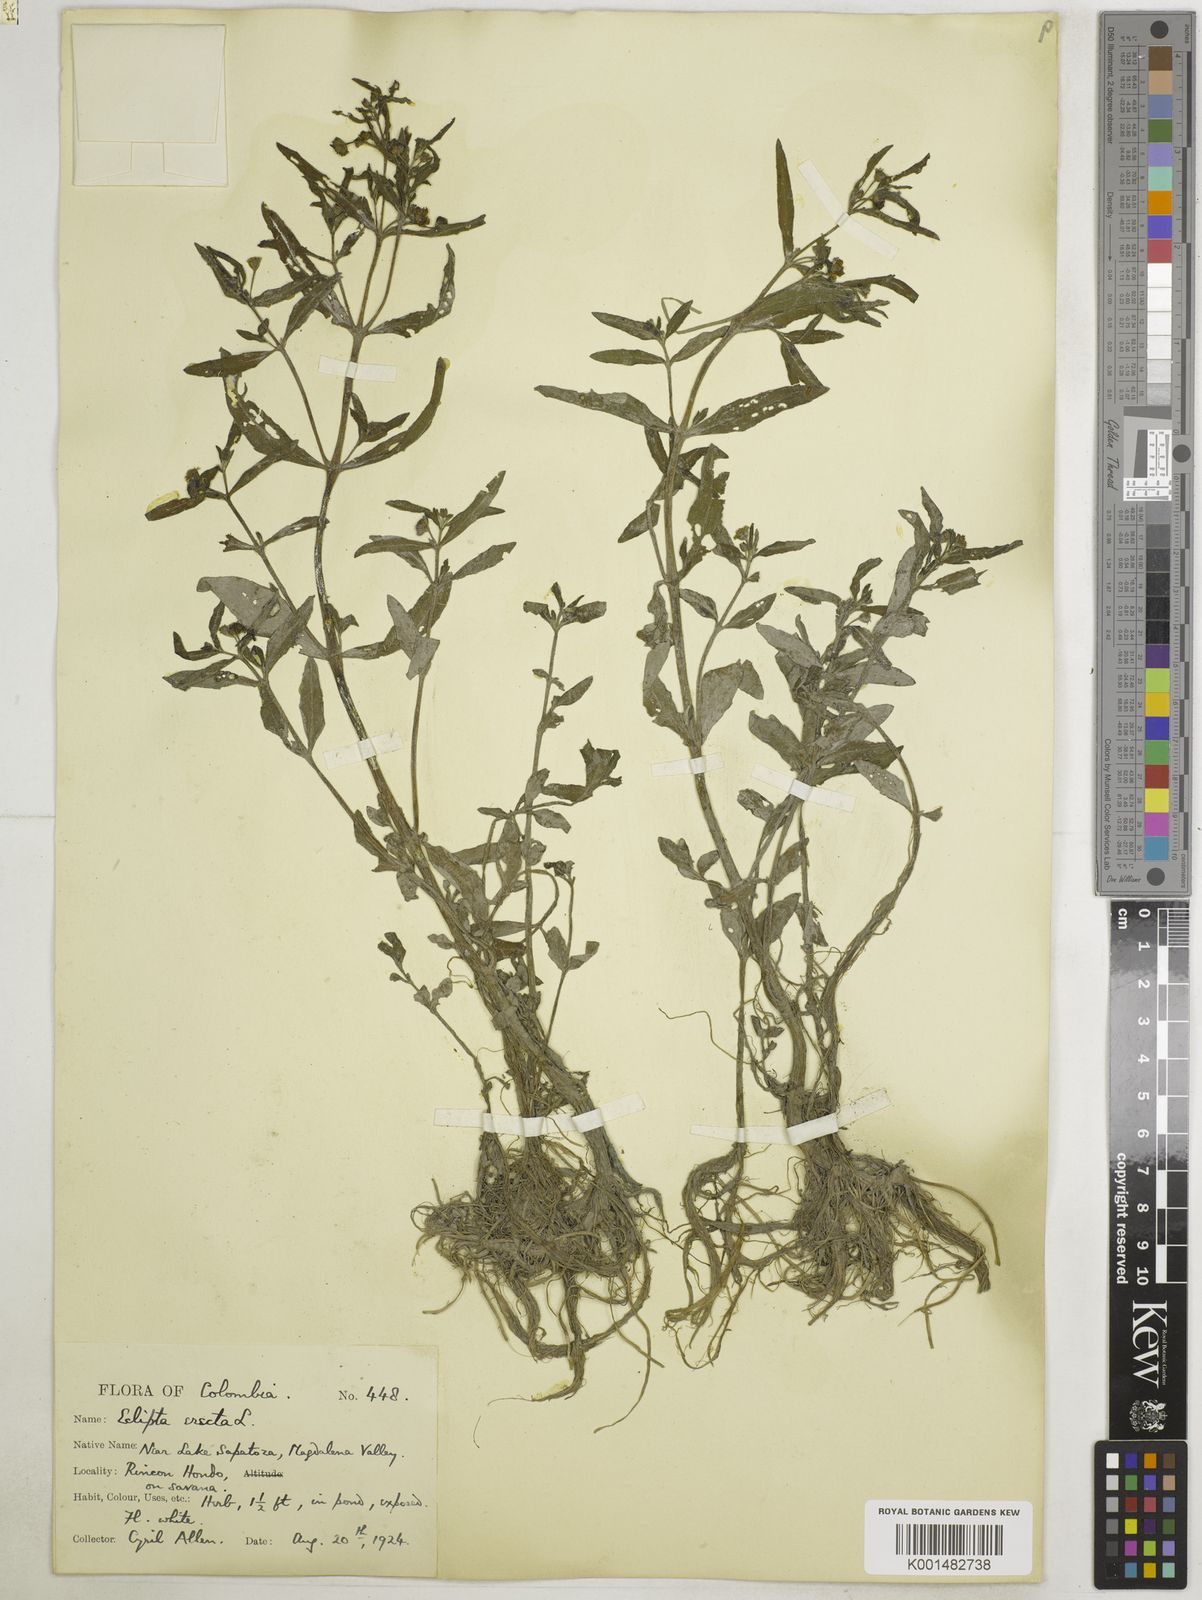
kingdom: Plantae
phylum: Tracheophyta
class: Magnoliopsida
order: Asterales
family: Asteraceae
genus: Eclipta
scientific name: Eclipta prostrata
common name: False daisy
